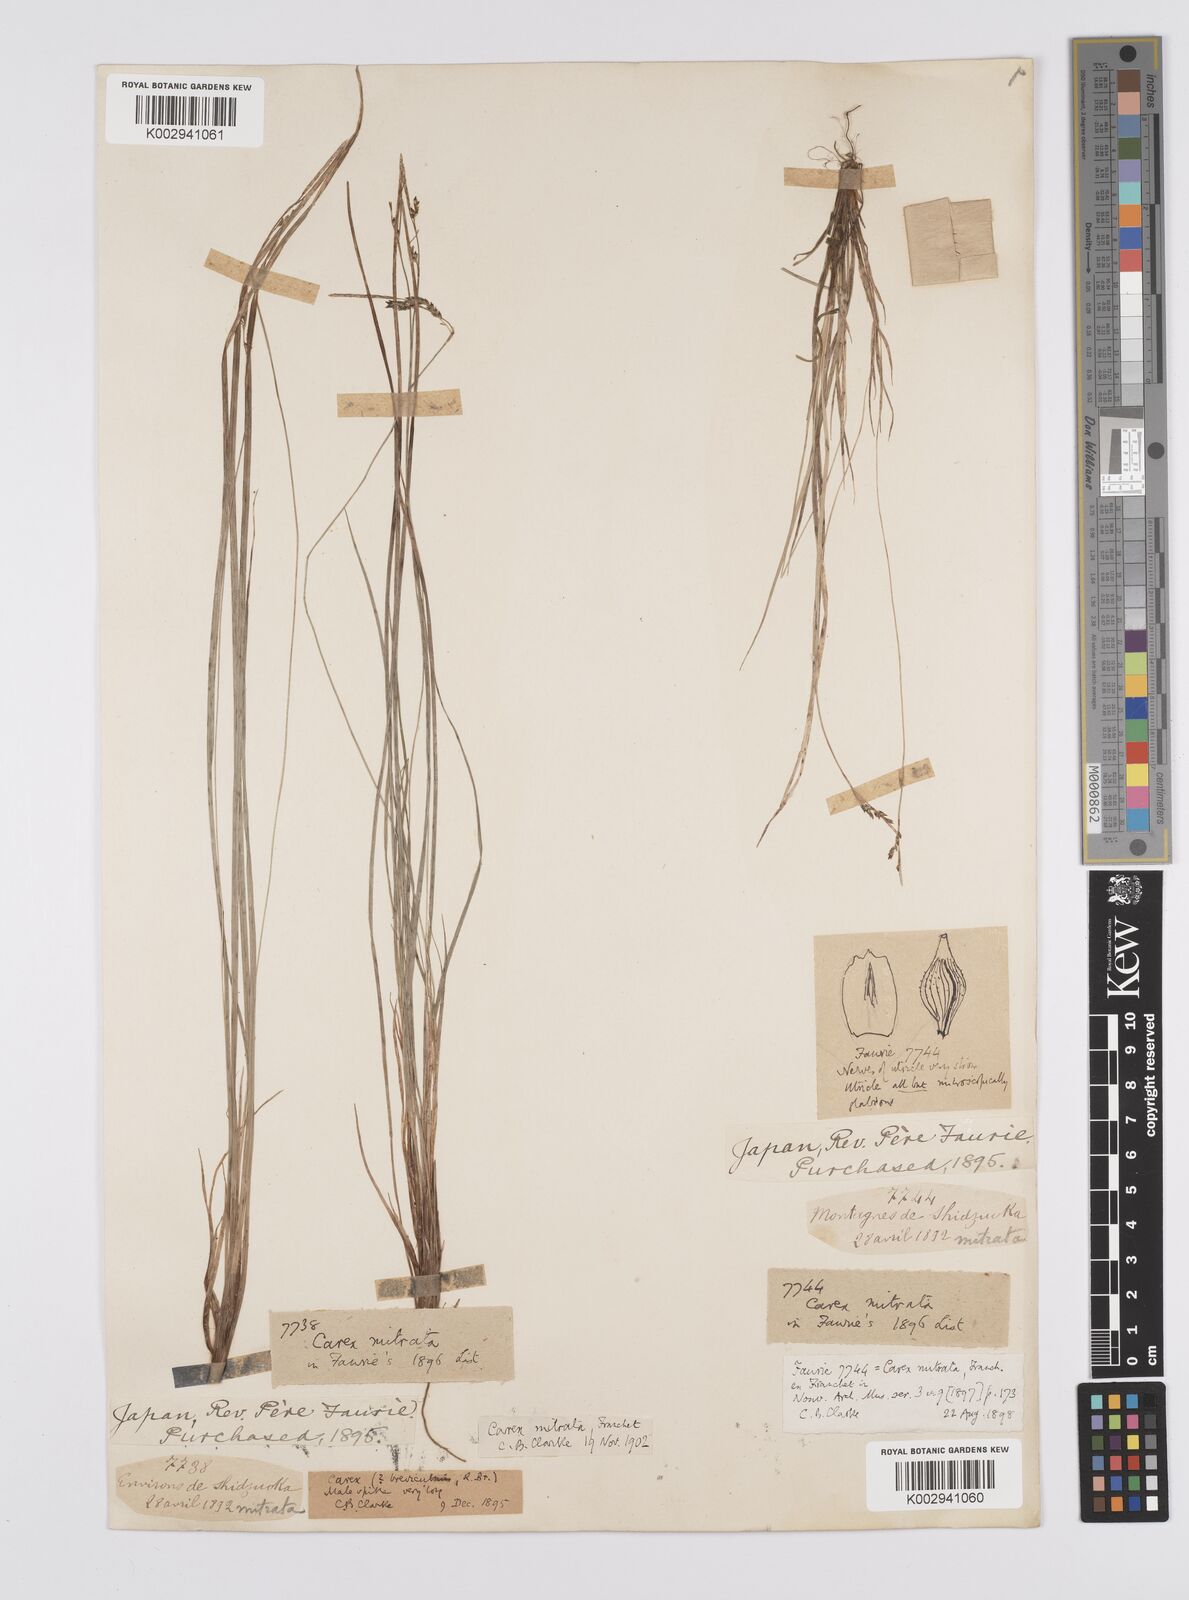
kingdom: Plantae
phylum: Tracheophyta
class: Liliopsida
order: Poales
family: Cyperaceae
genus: Carex
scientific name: Carex mitrata
